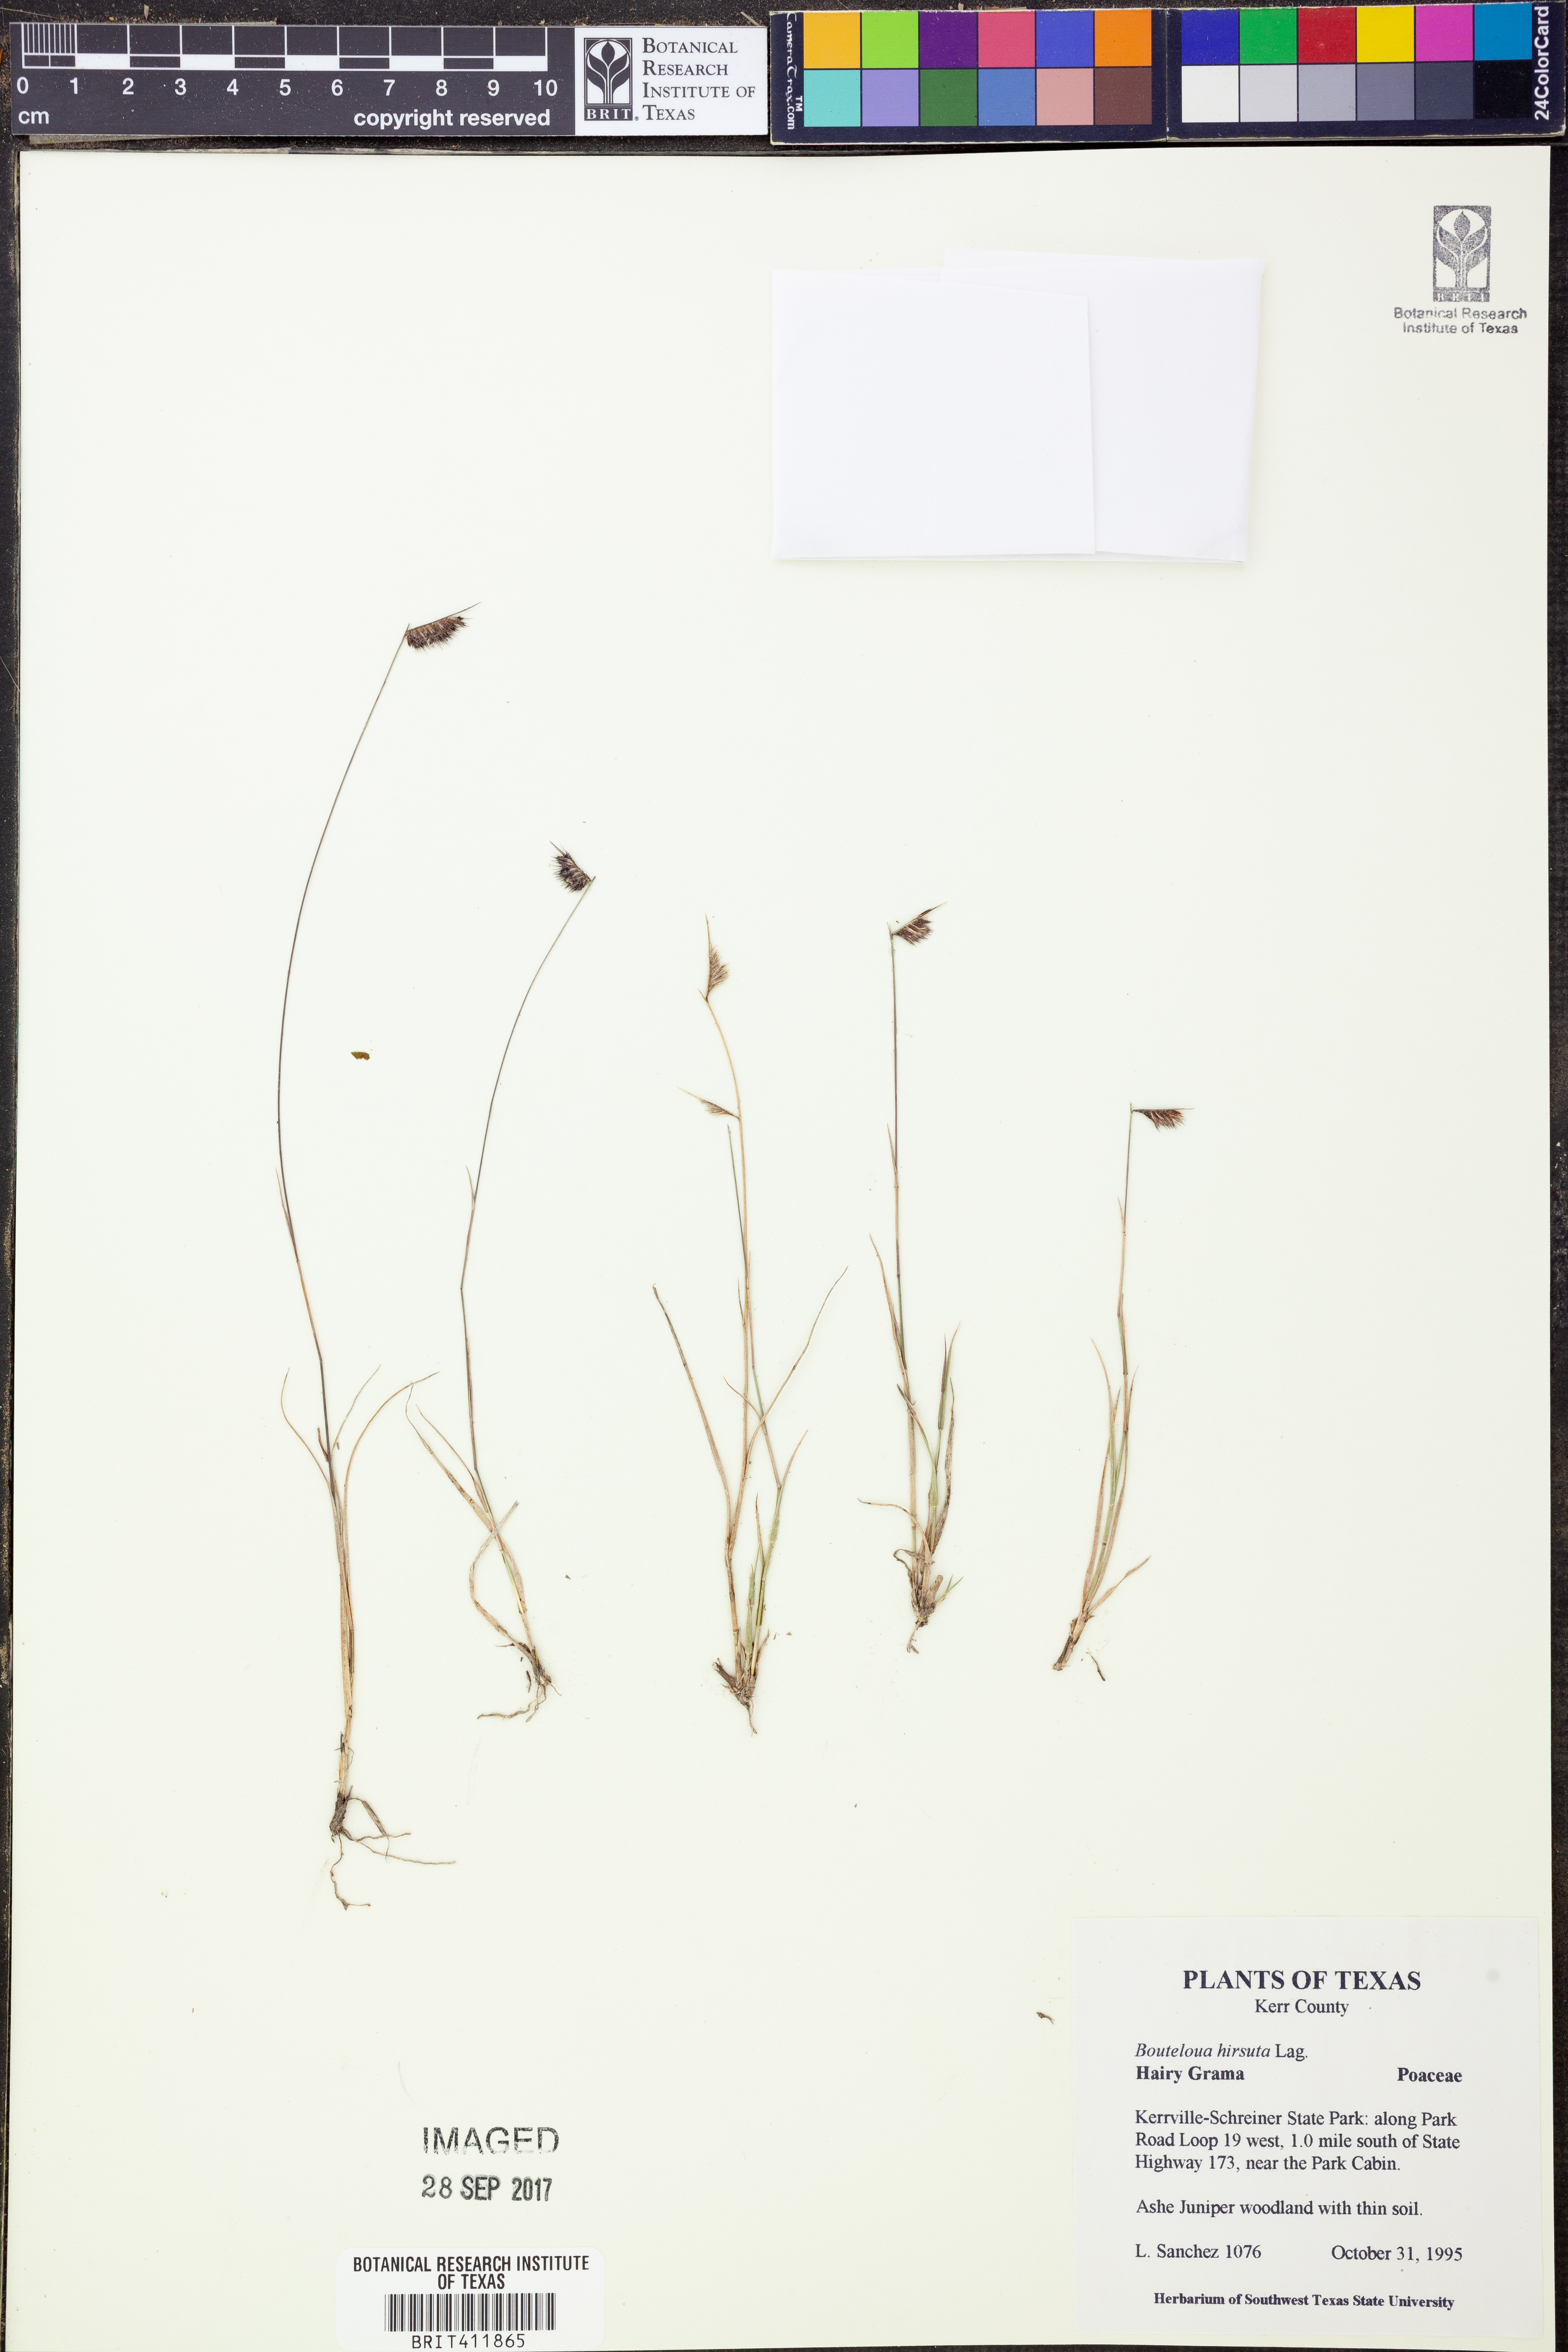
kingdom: Plantae
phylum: Tracheophyta
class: Liliopsida
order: Poales
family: Poaceae
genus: Bouteloua
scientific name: Bouteloua hirsuta
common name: Hairy grama
